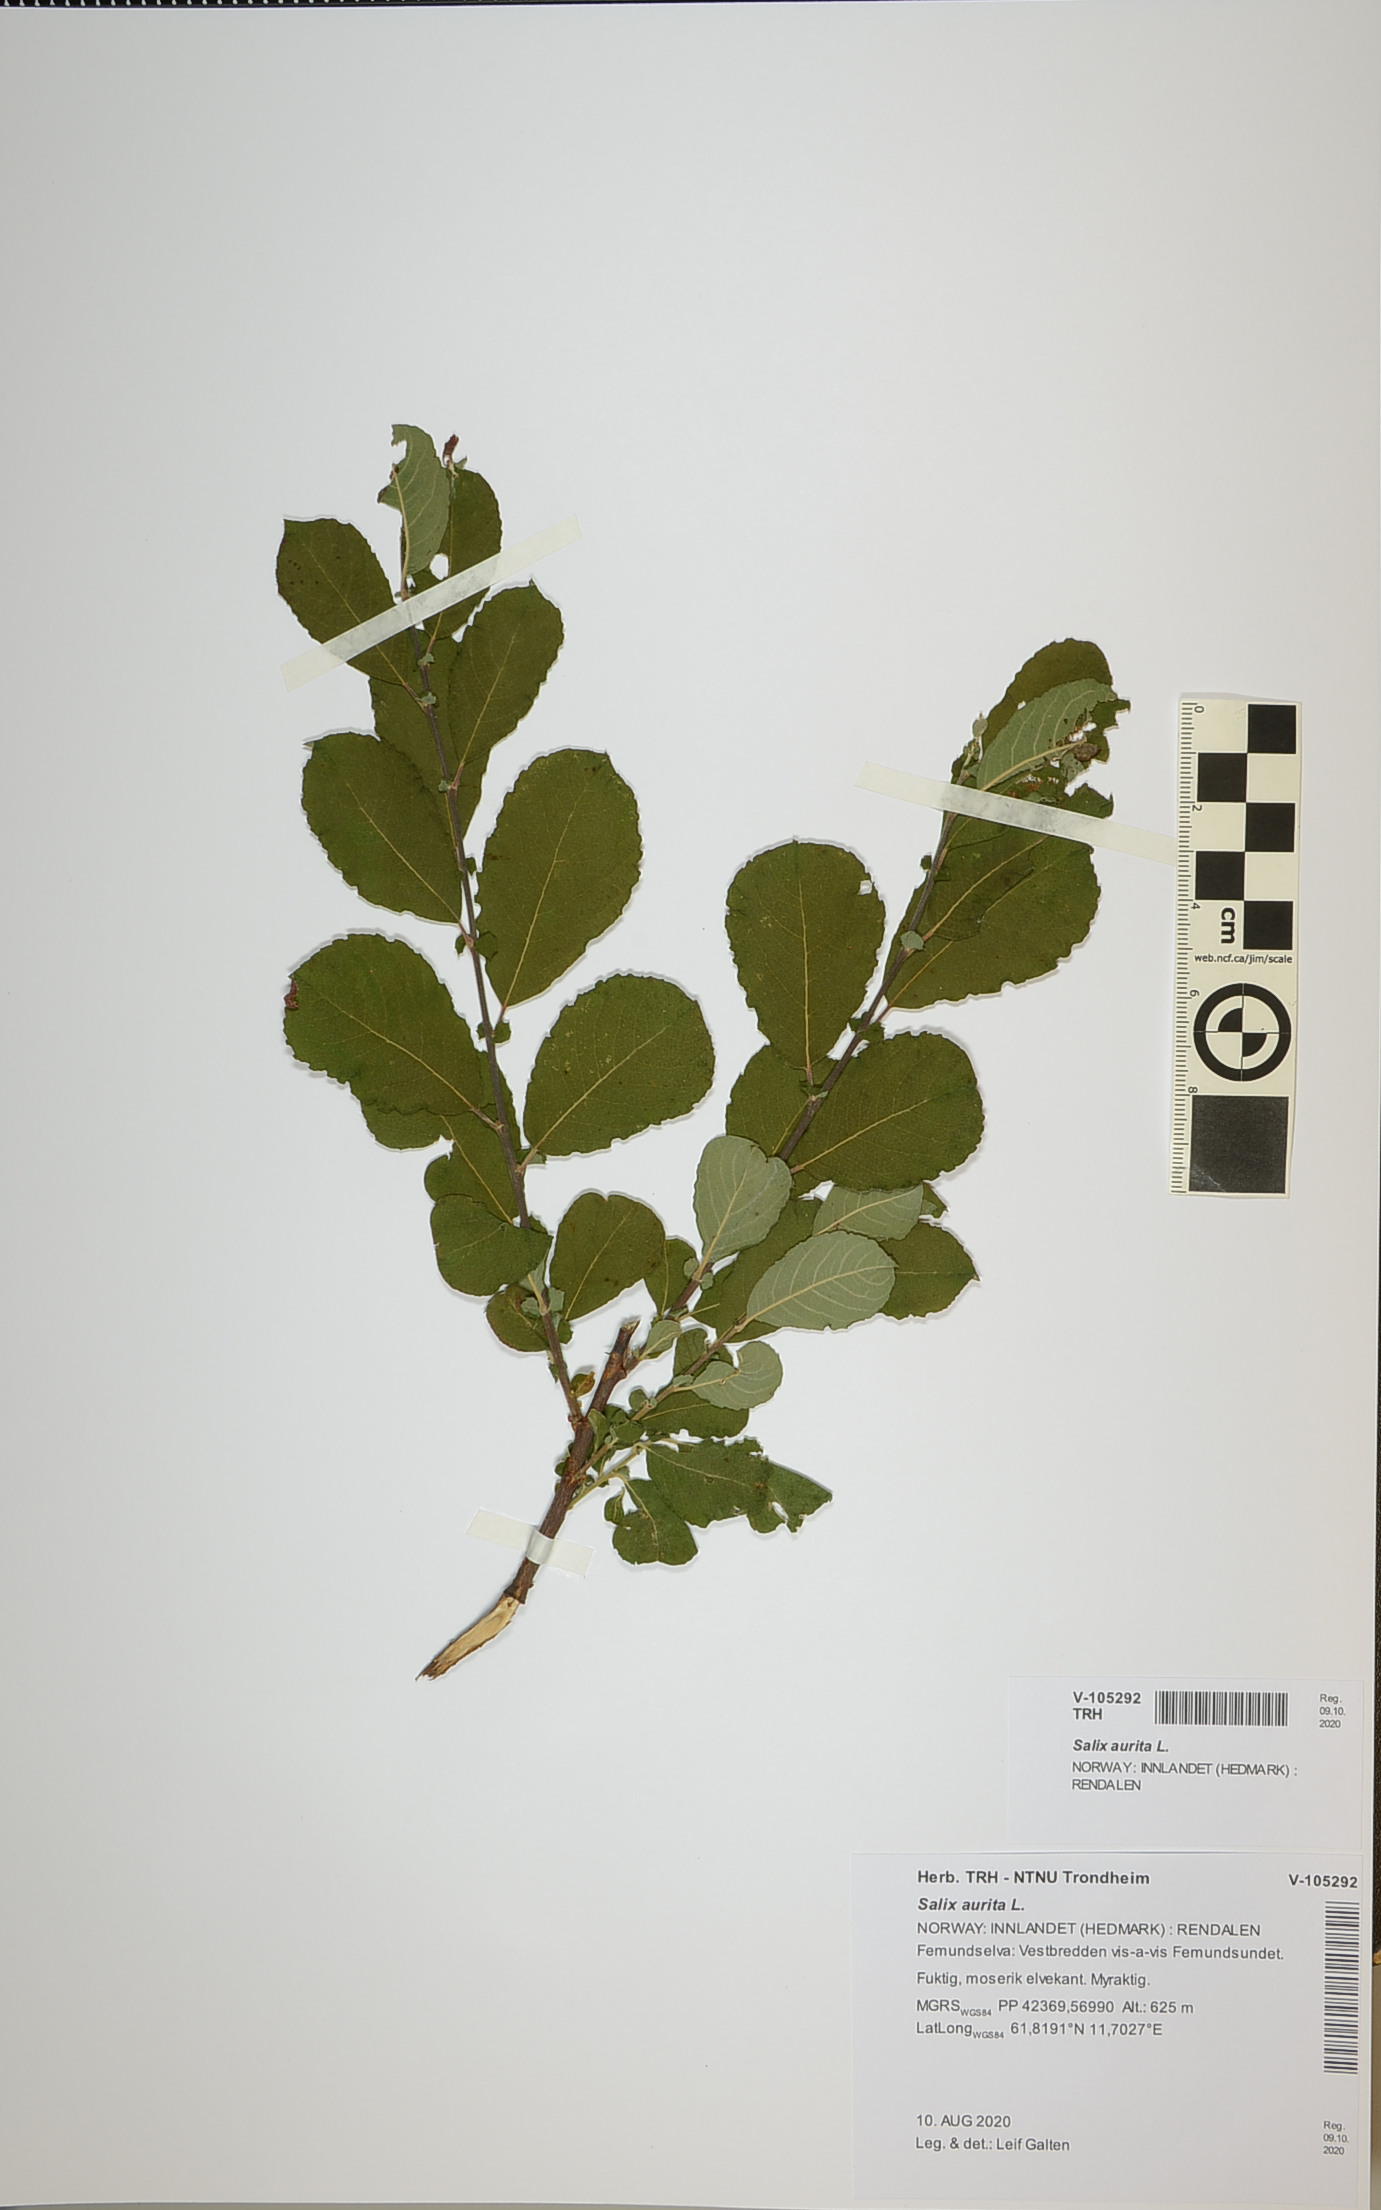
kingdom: Plantae
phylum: Tracheophyta
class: Magnoliopsida
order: Malpighiales
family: Salicaceae
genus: Salix
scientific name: Salix aurita
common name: Eared willow
